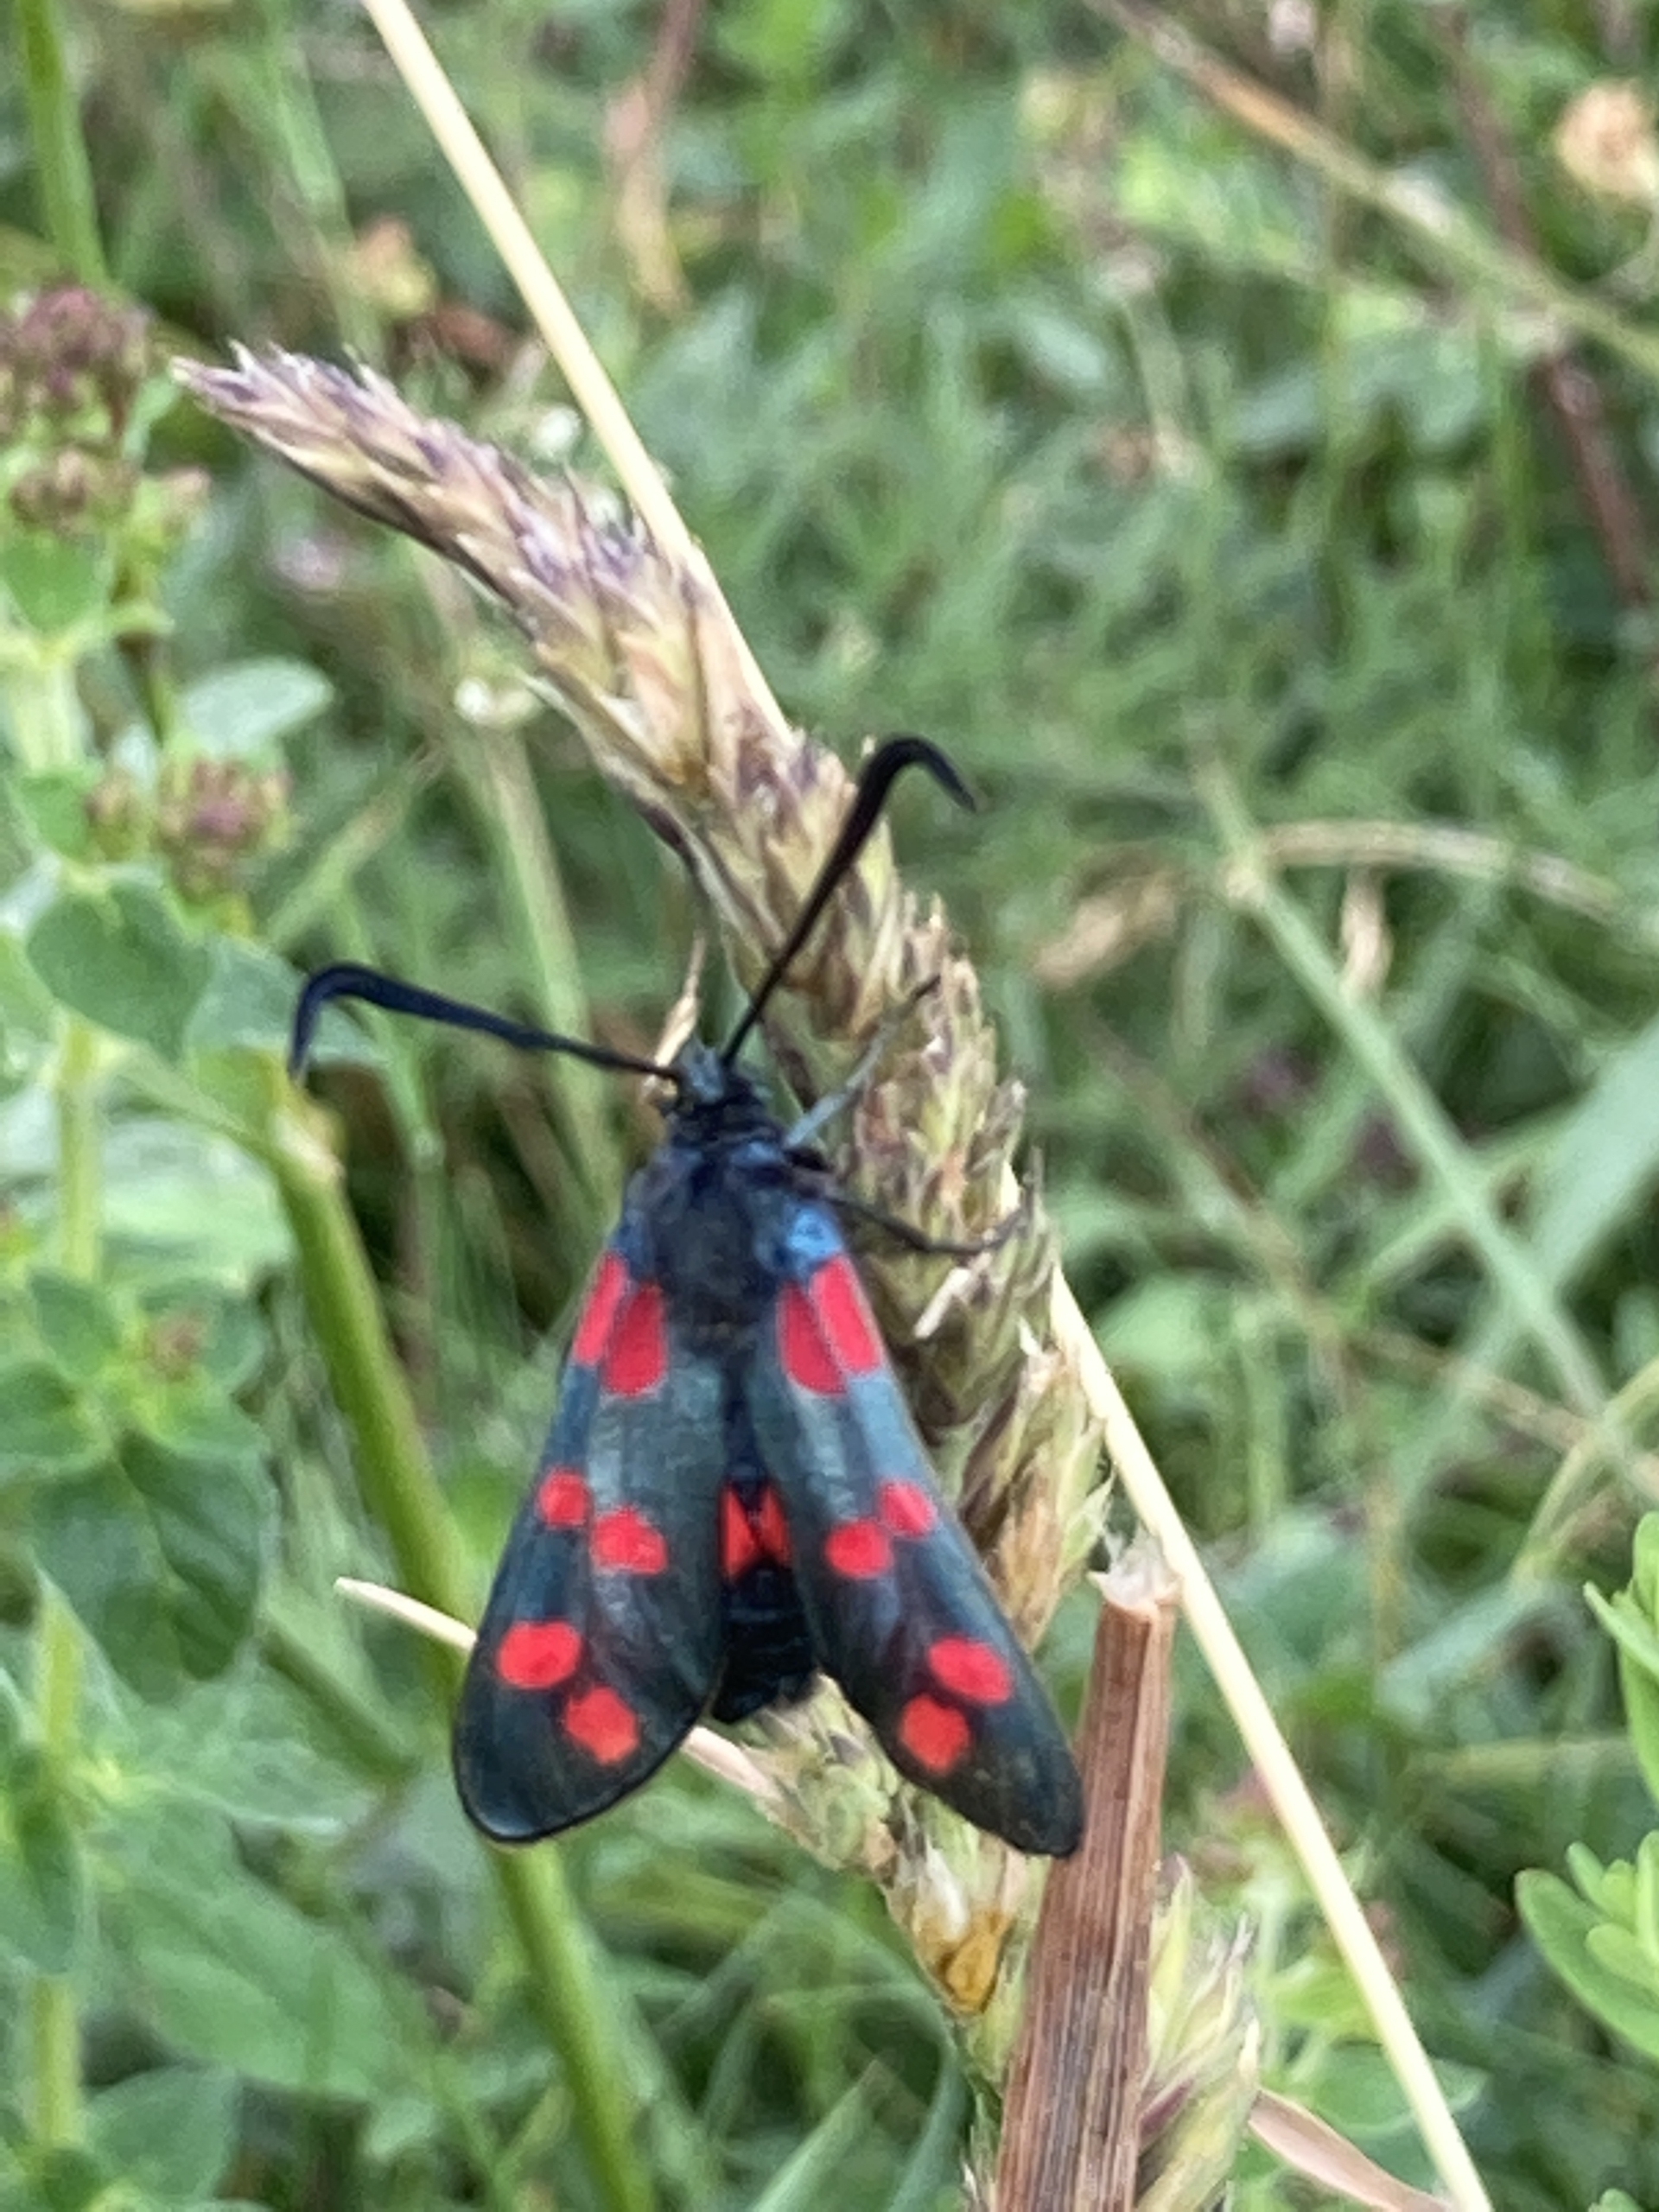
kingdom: Animalia
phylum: Arthropoda
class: Insecta
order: Lepidoptera
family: Zygaenidae
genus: Zygaena
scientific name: Zygaena filipendulae
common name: Seksplettet køllesværmer
